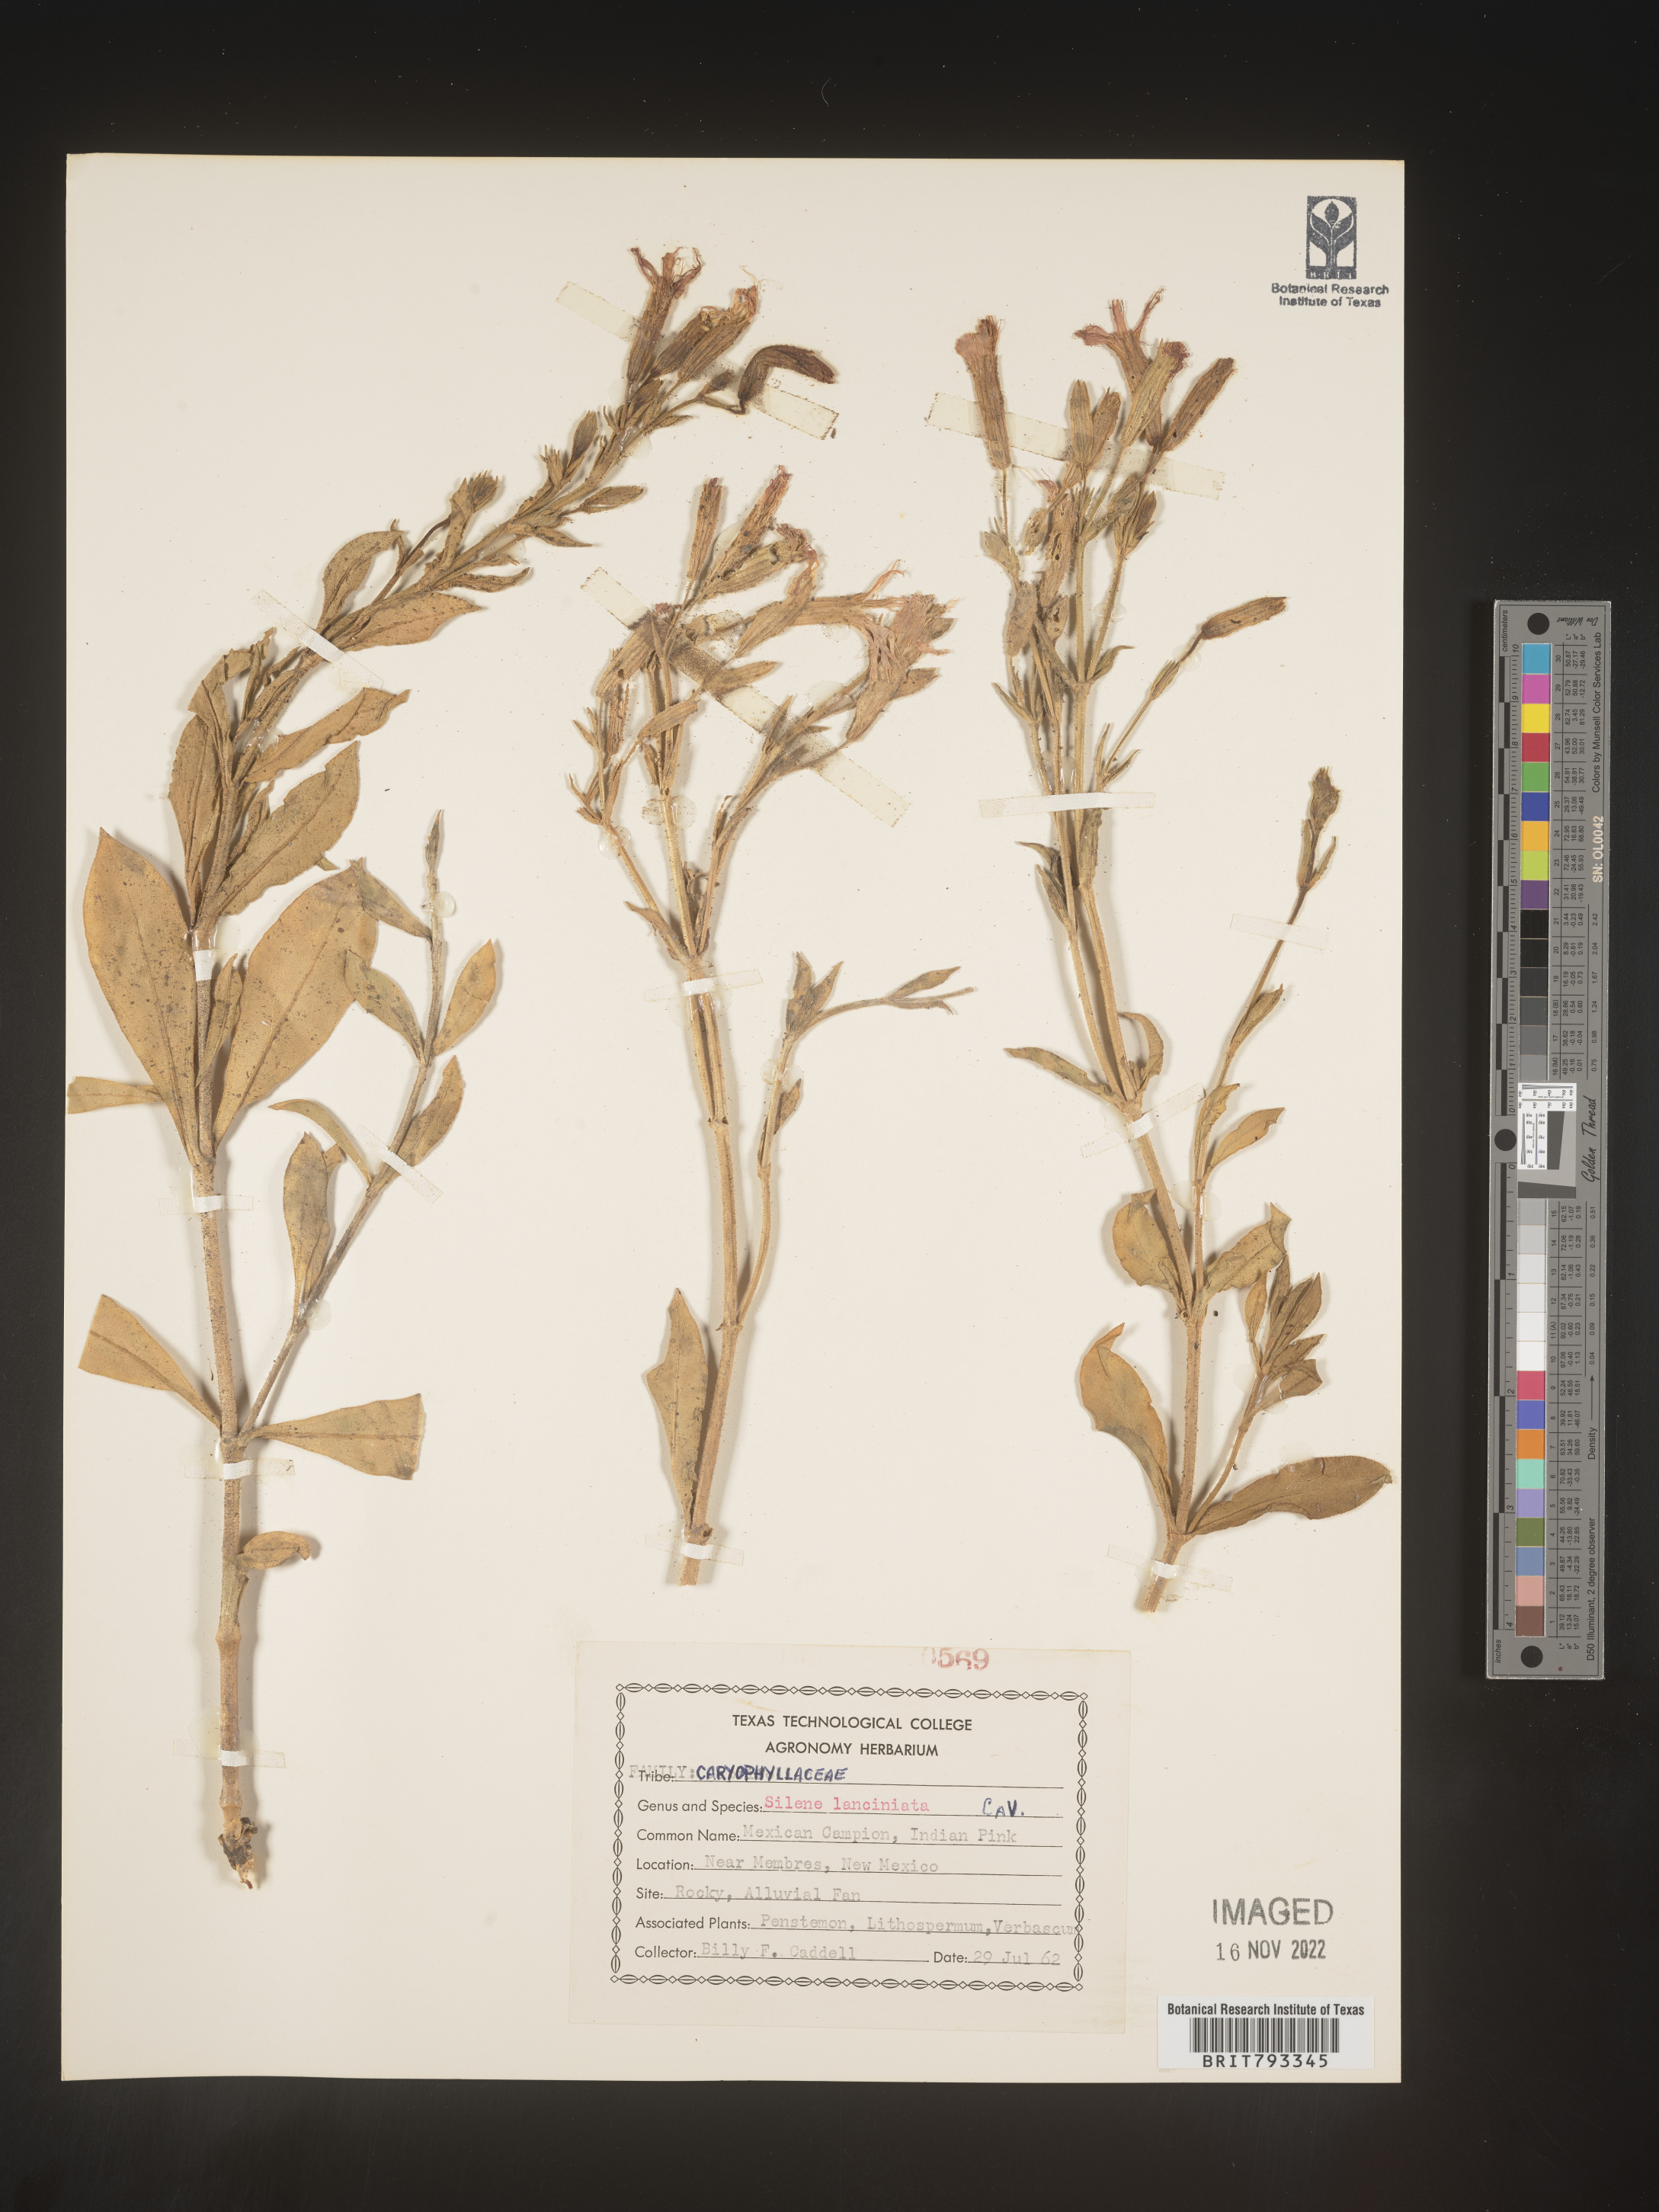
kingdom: Plantae
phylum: Tracheophyta
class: Magnoliopsida
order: Caryophyllales
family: Caryophyllaceae
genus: Silene
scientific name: Silene laciniata
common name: Indian-pink
